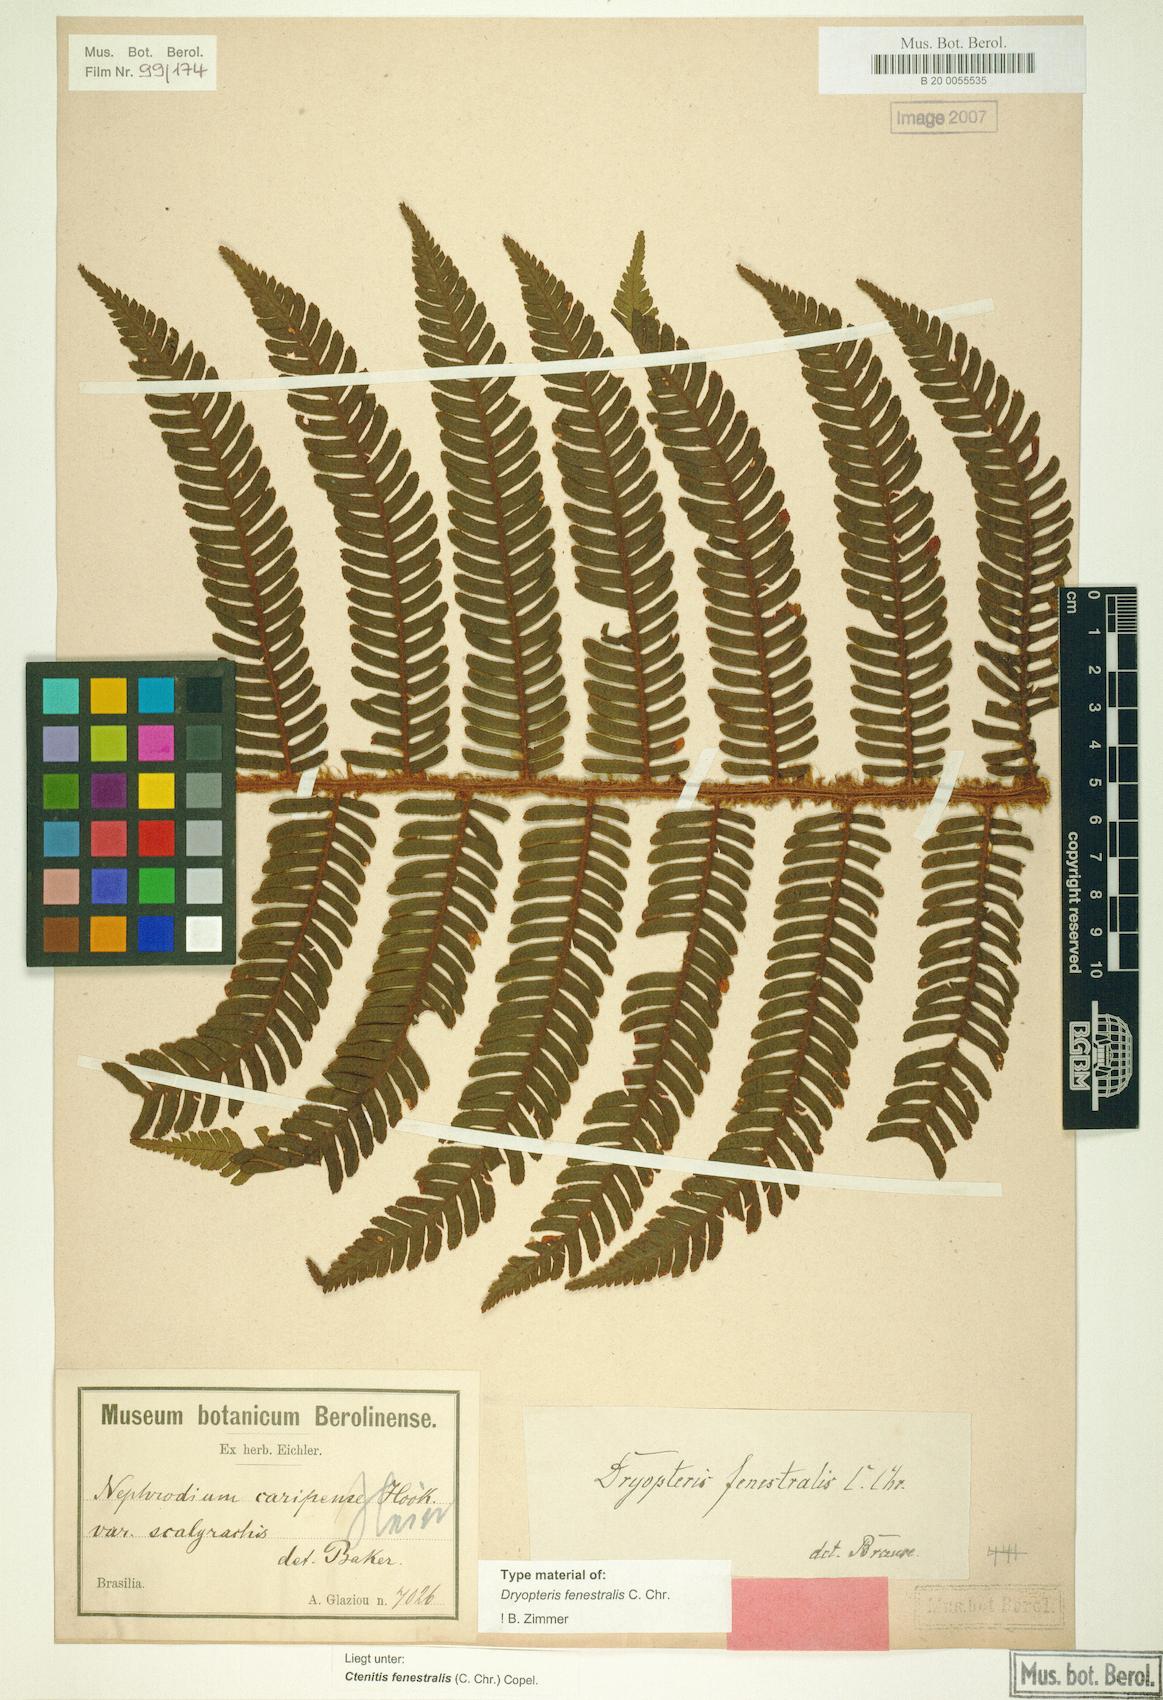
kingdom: Plantae
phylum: Tracheophyta
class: Polypodiopsida
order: Polypodiales
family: Dryopteridaceae
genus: Ctenitis
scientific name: Ctenitis fenestralis
